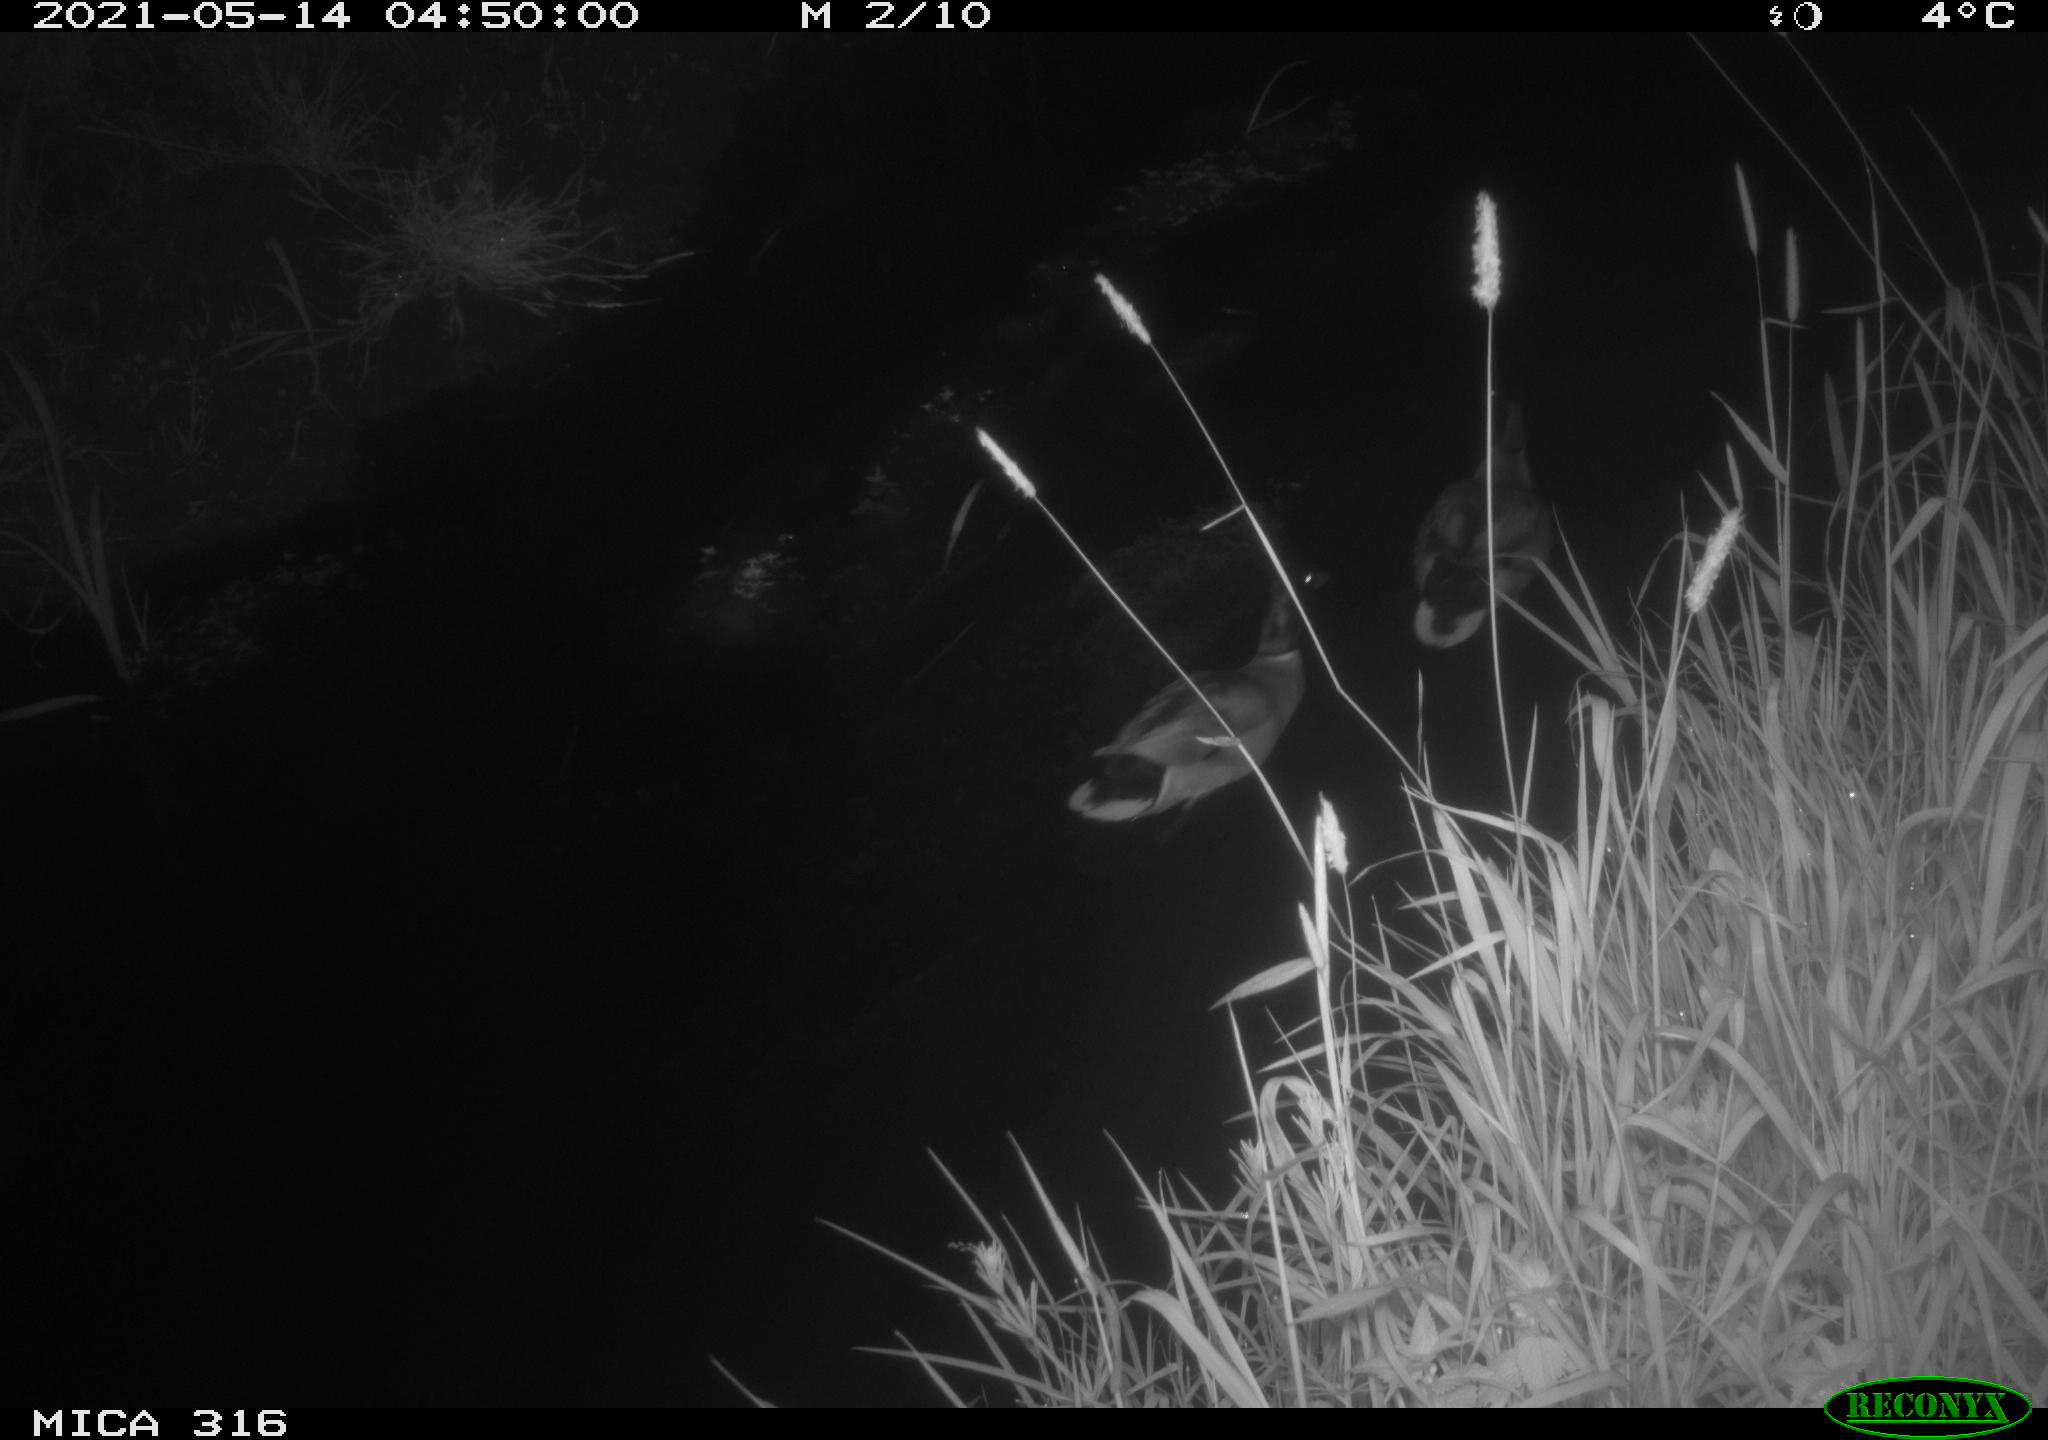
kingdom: Animalia
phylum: Chordata
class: Aves
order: Gruiformes
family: Rallidae
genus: Fulica
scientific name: Fulica atra
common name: Eurasian coot
